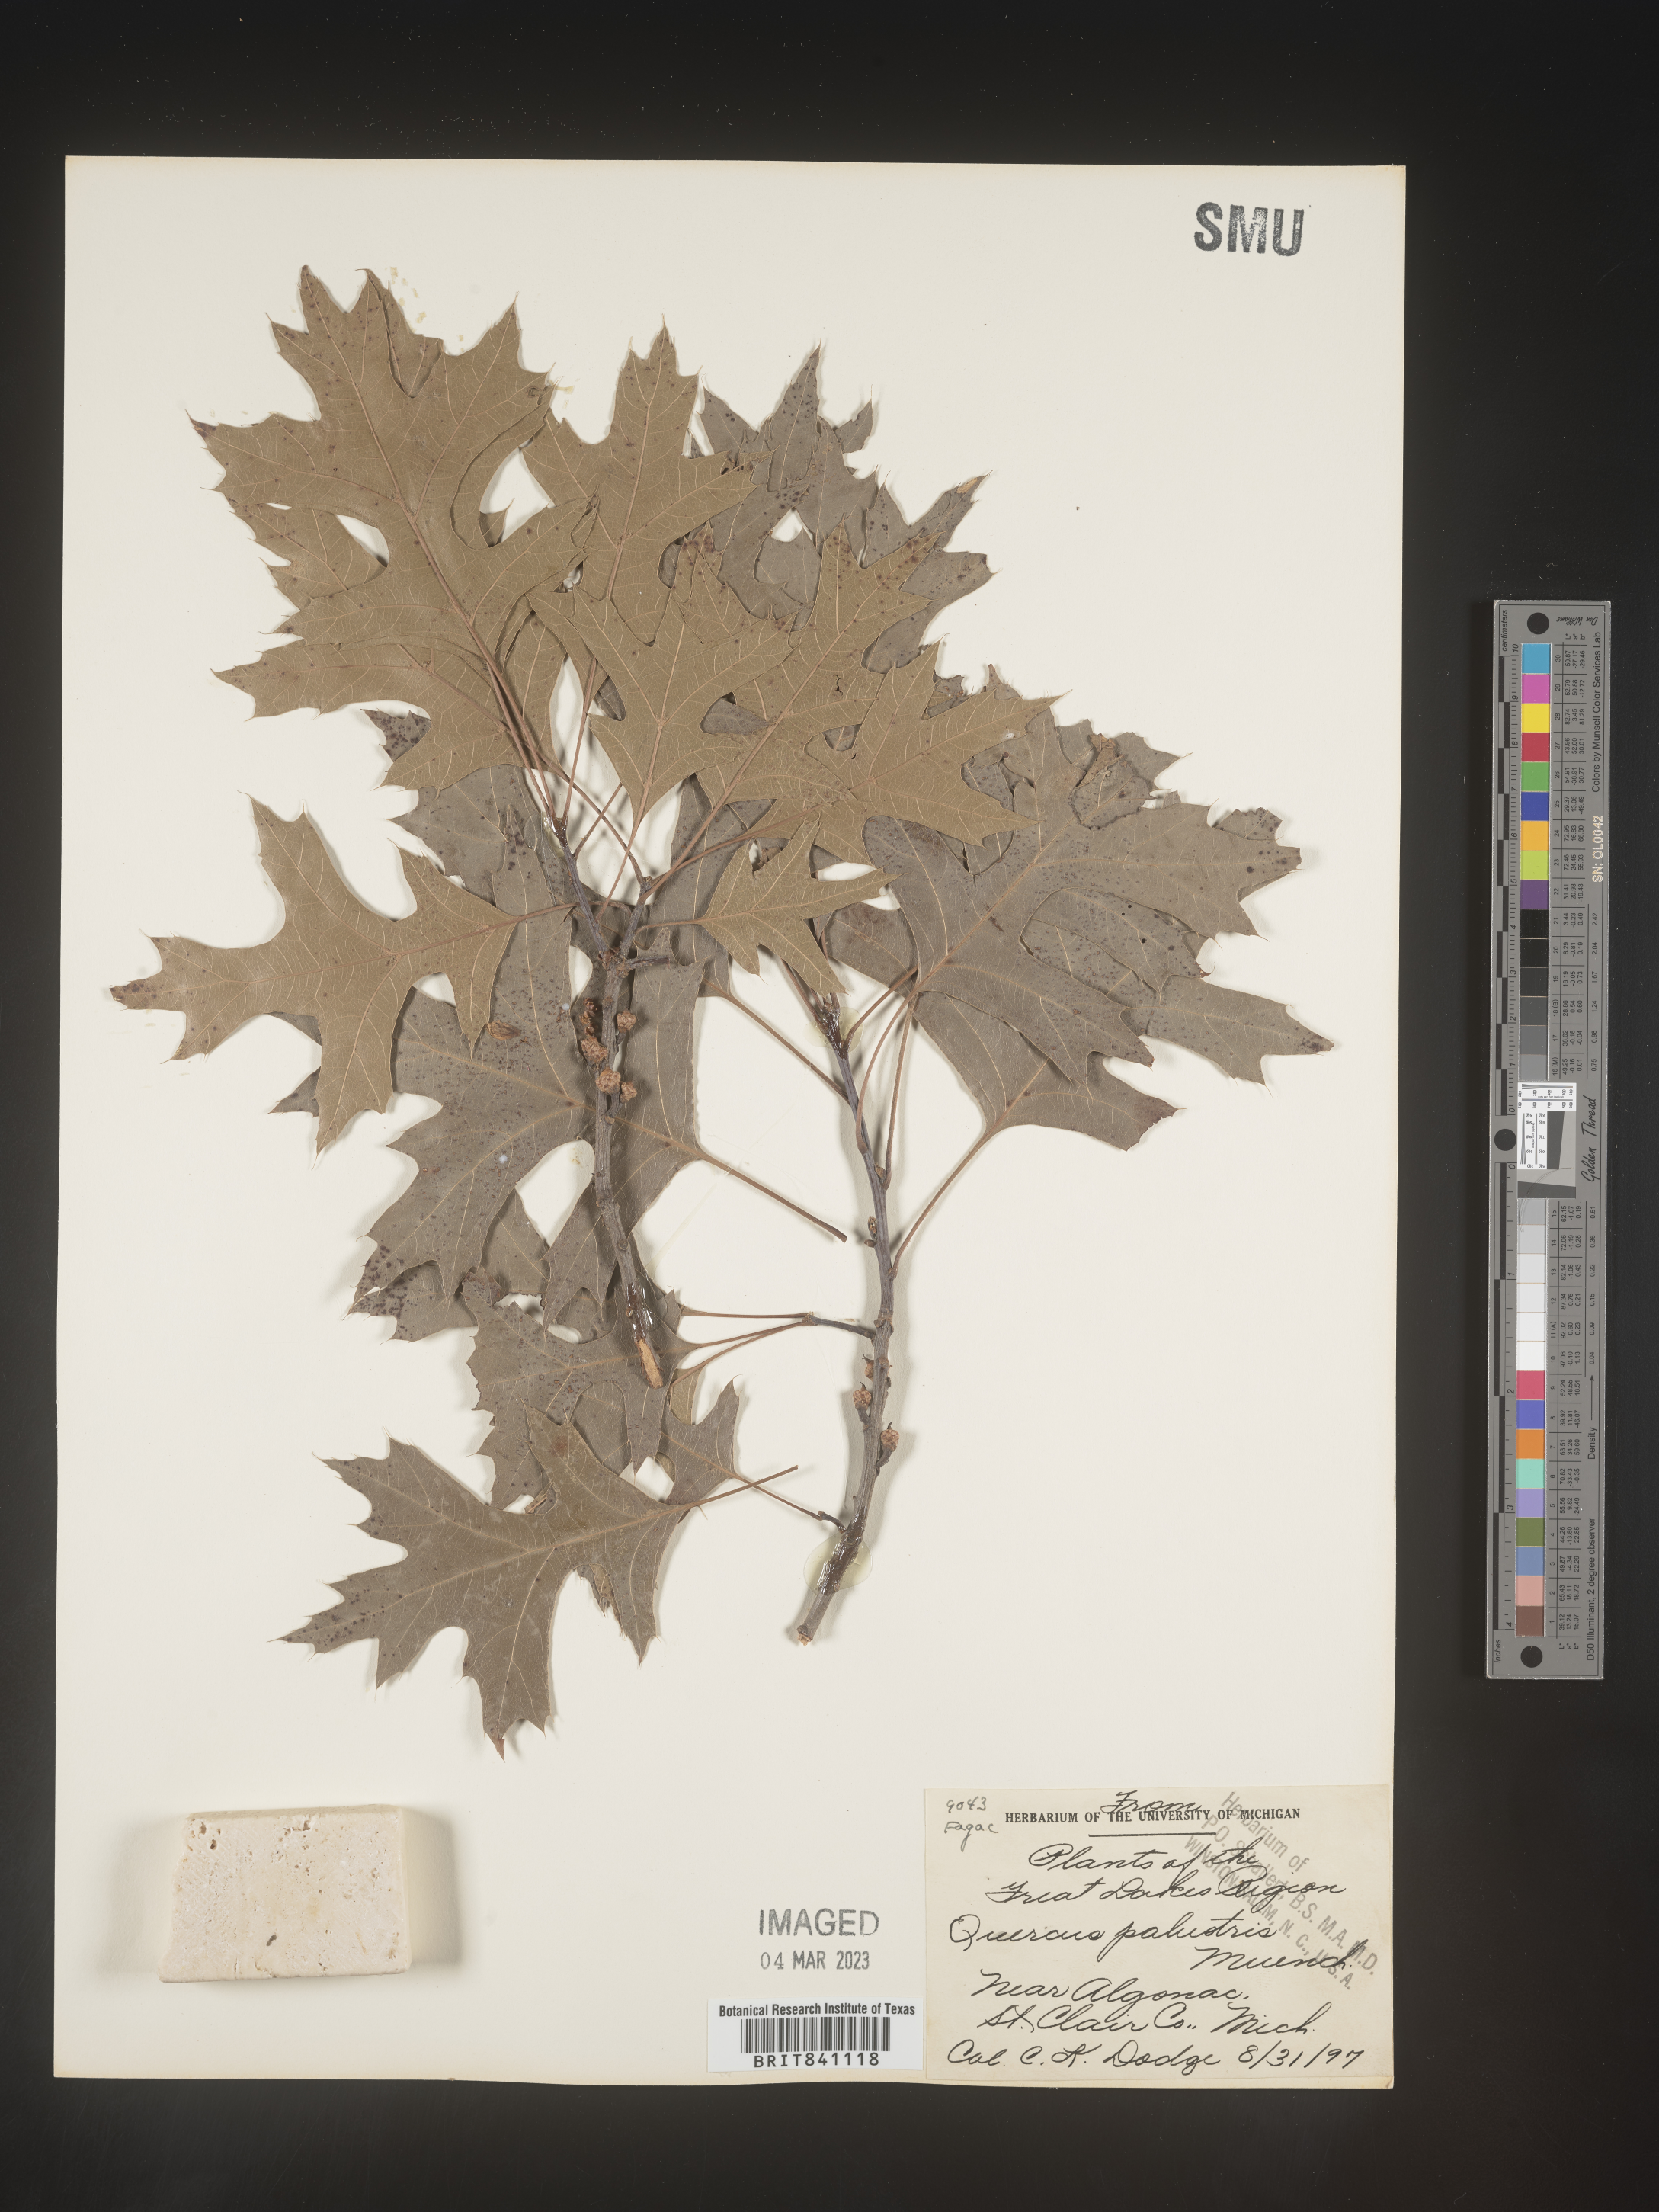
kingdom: Plantae
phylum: Tracheophyta
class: Magnoliopsida
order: Fagales
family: Fagaceae
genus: Quercus
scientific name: Quercus palustris
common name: Pin oak
